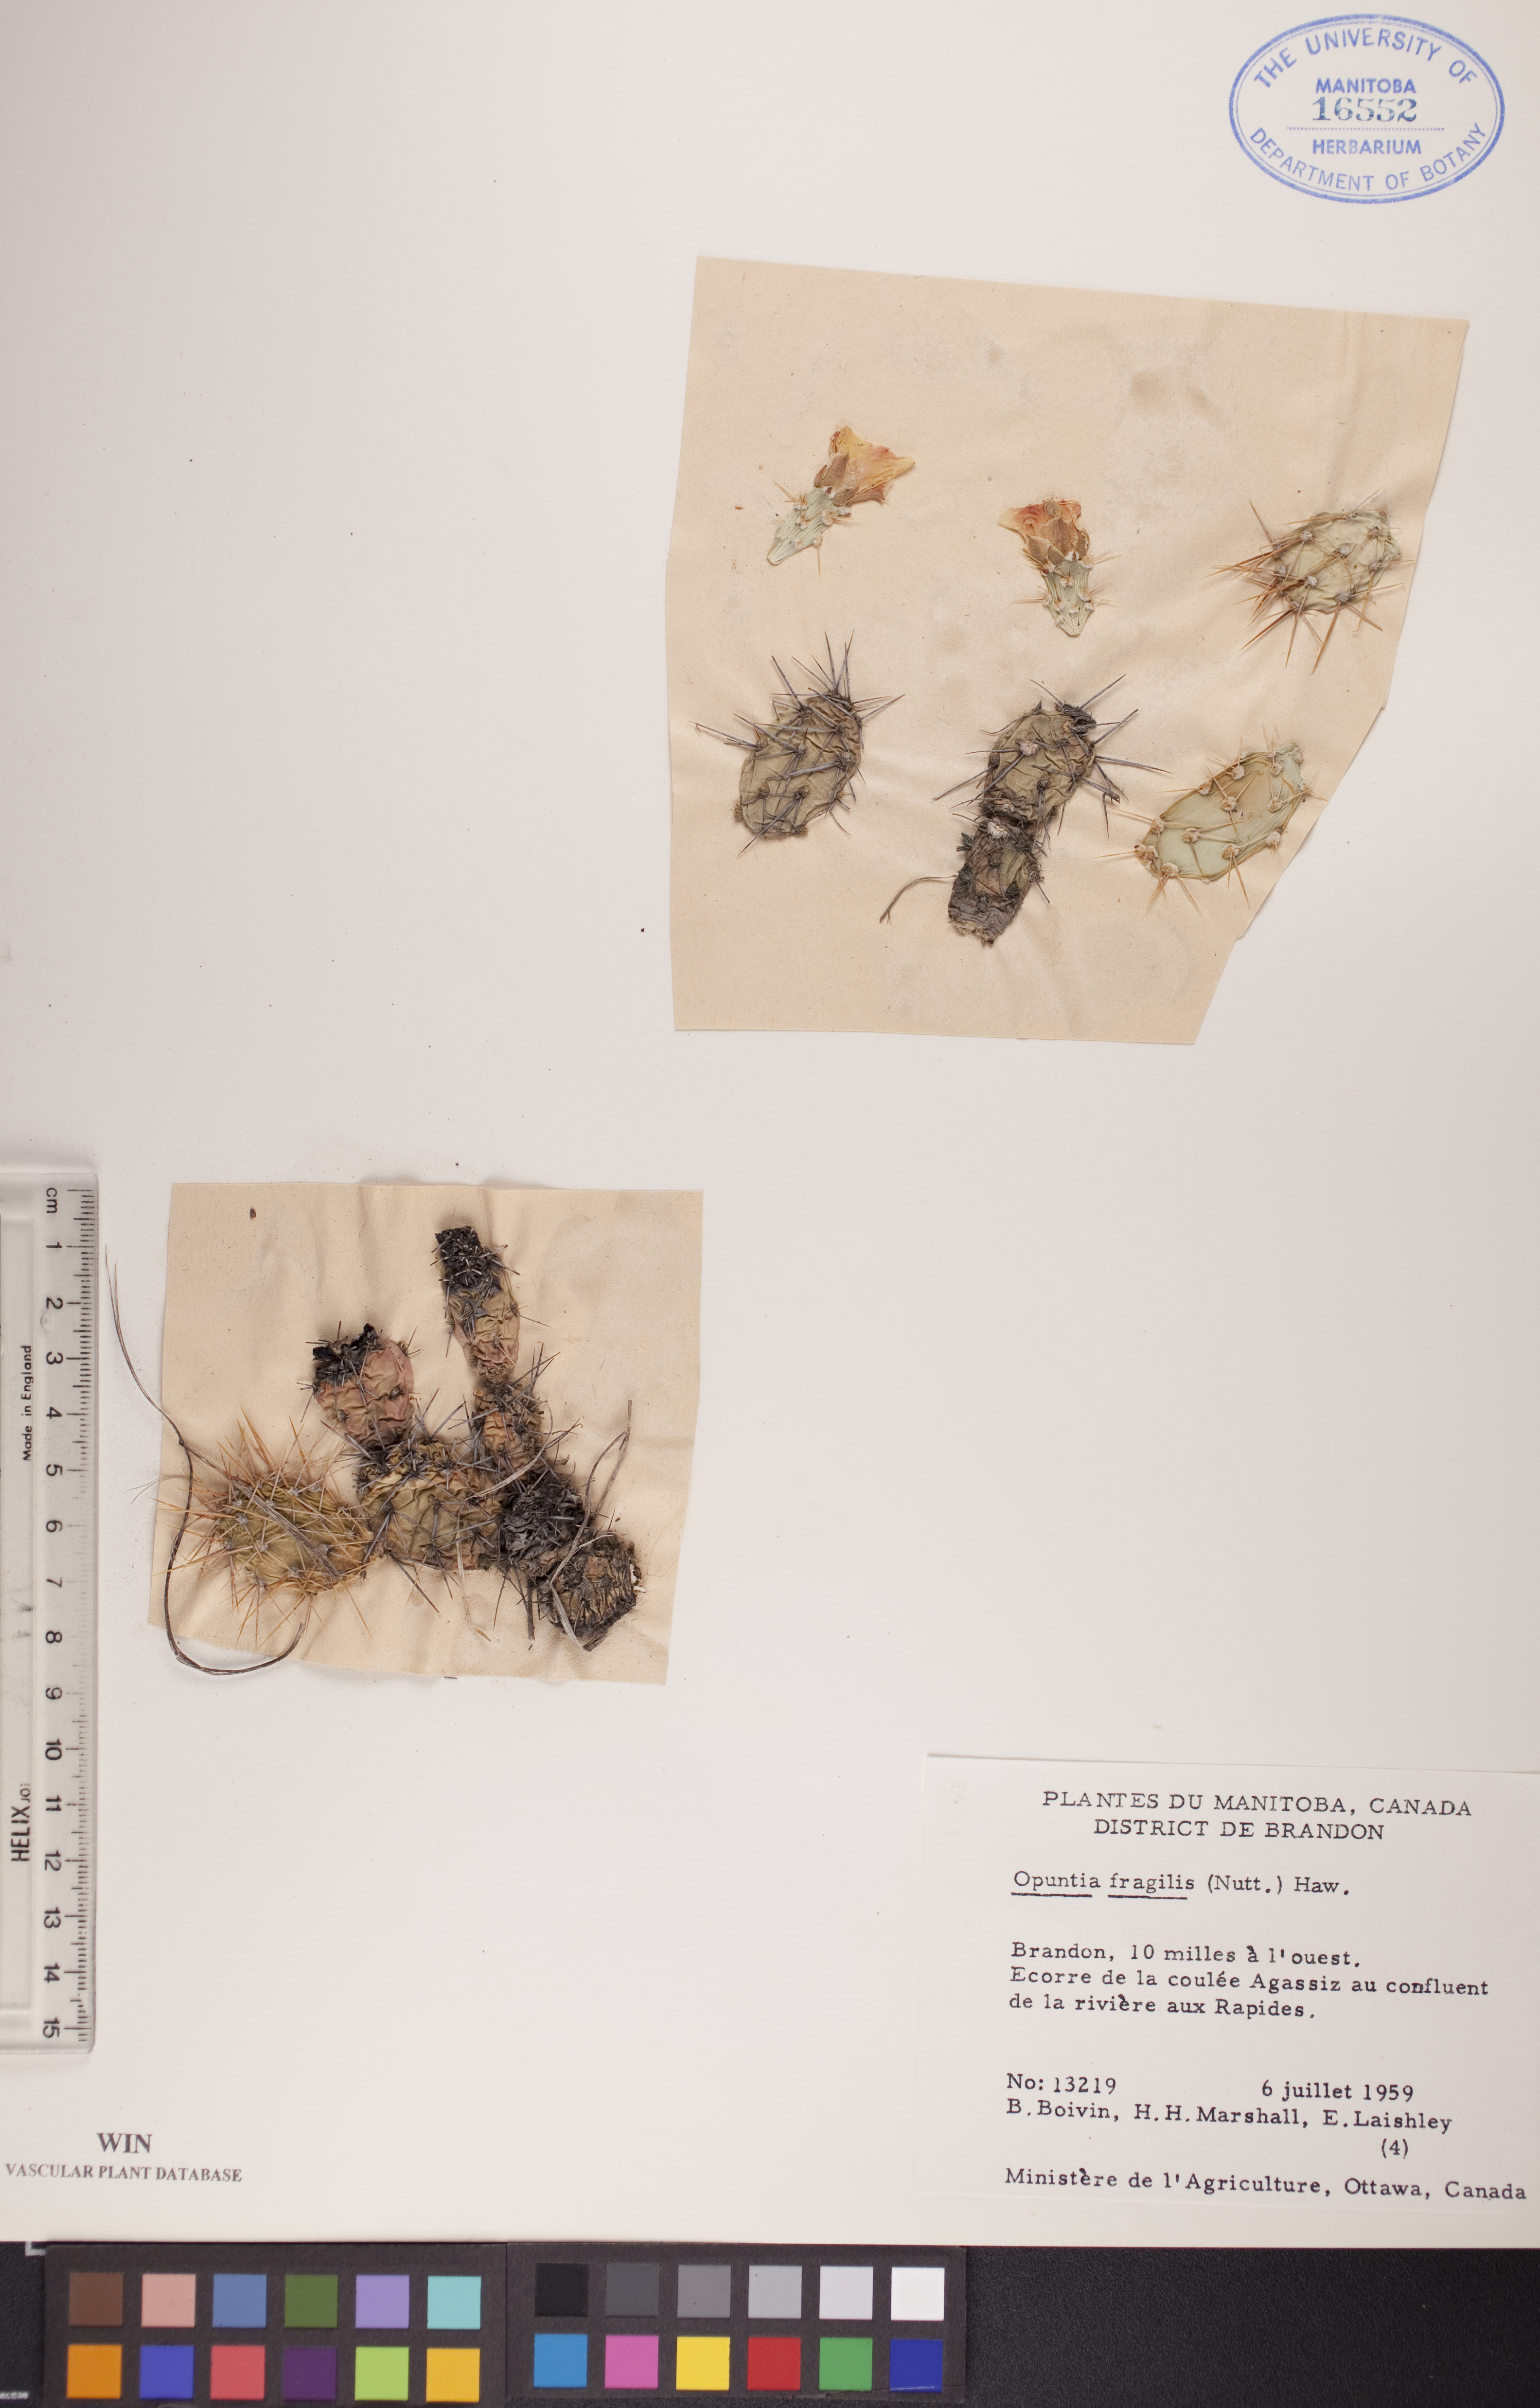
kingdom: Plantae
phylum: Tracheophyta
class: Magnoliopsida
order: Caryophyllales
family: Cactaceae
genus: Opuntia
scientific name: Opuntia fragilis
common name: Brittle cactus
